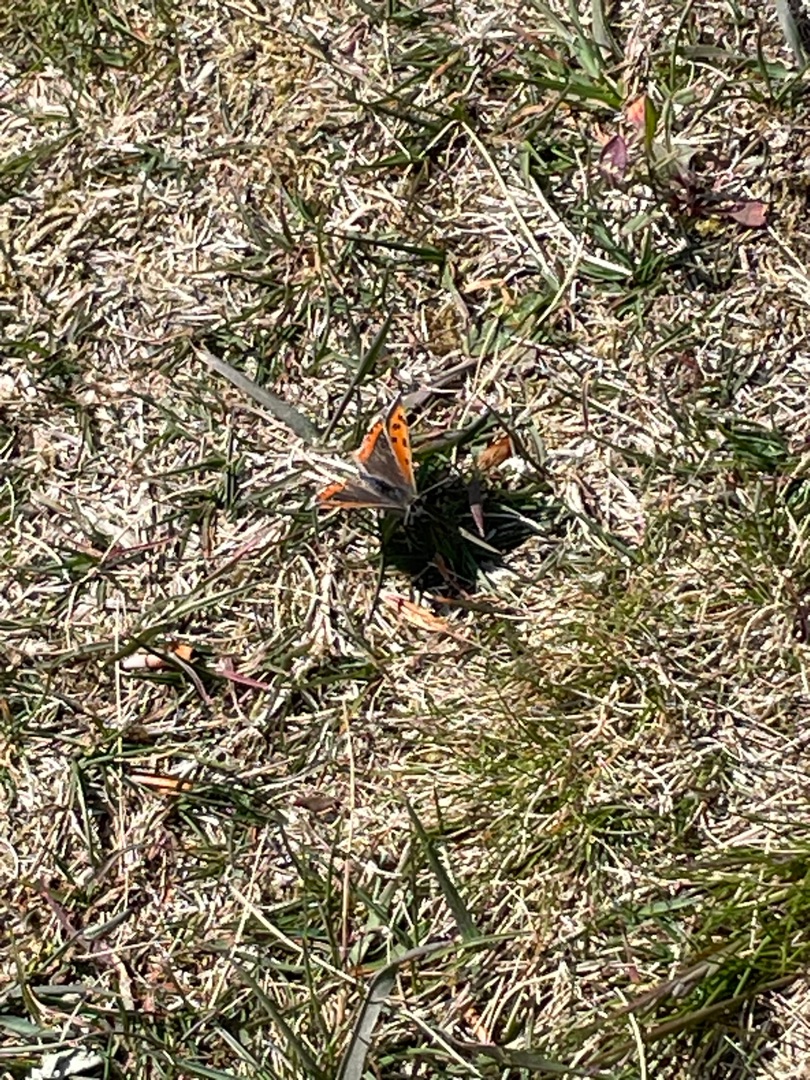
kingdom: Animalia
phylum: Arthropoda
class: Insecta
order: Lepidoptera
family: Lycaenidae
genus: Lycaena
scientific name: Lycaena phlaeas
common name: Lille ildfugl
